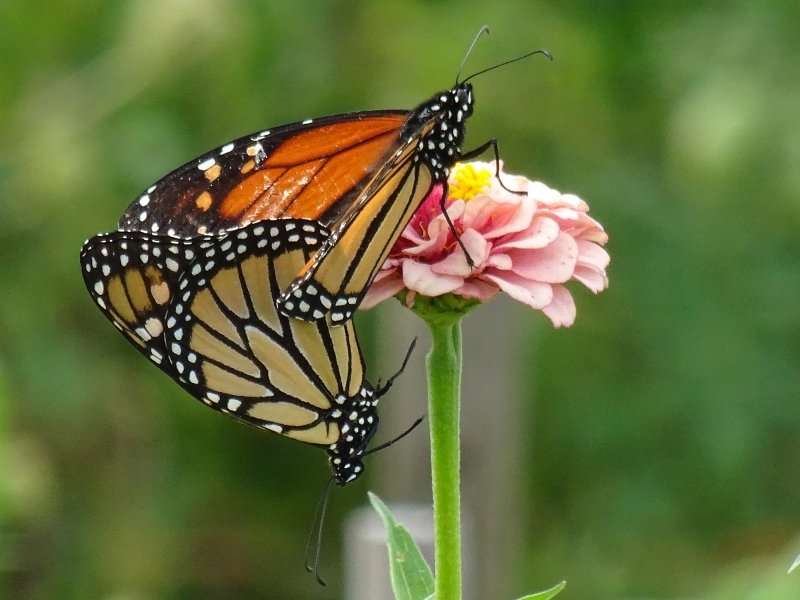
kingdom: Animalia
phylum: Arthropoda
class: Insecta
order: Lepidoptera
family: Nymphalidae
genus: Danaus
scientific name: Danaus plexippus
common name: Monarch
